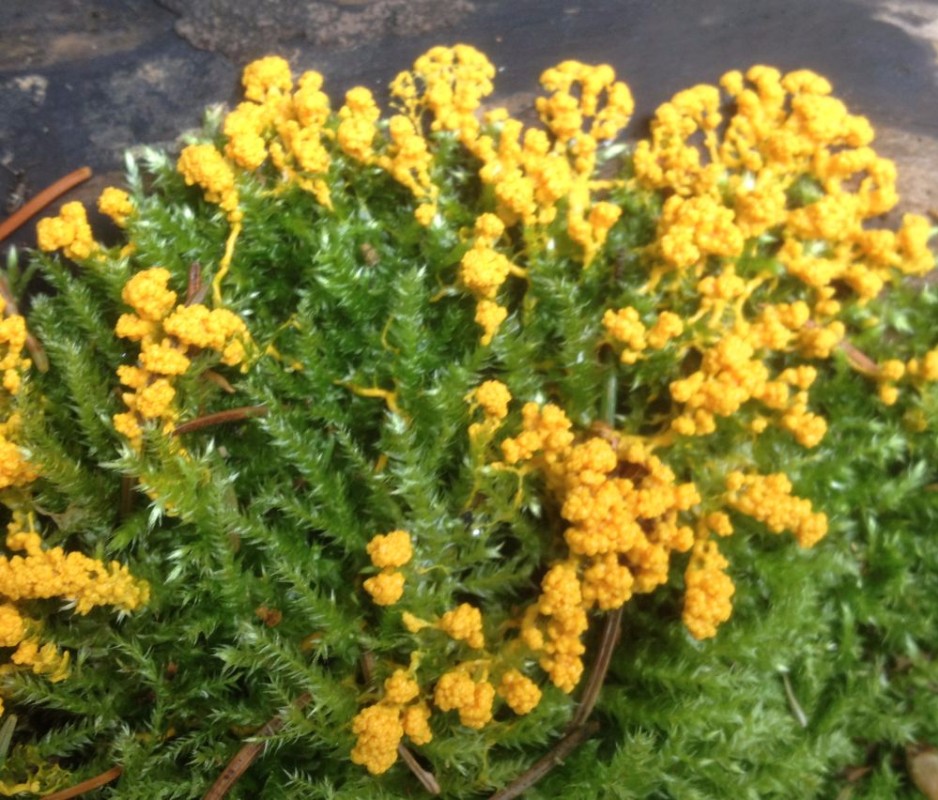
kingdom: Protozoa
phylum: Mycetozoa
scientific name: Mycetozoa
